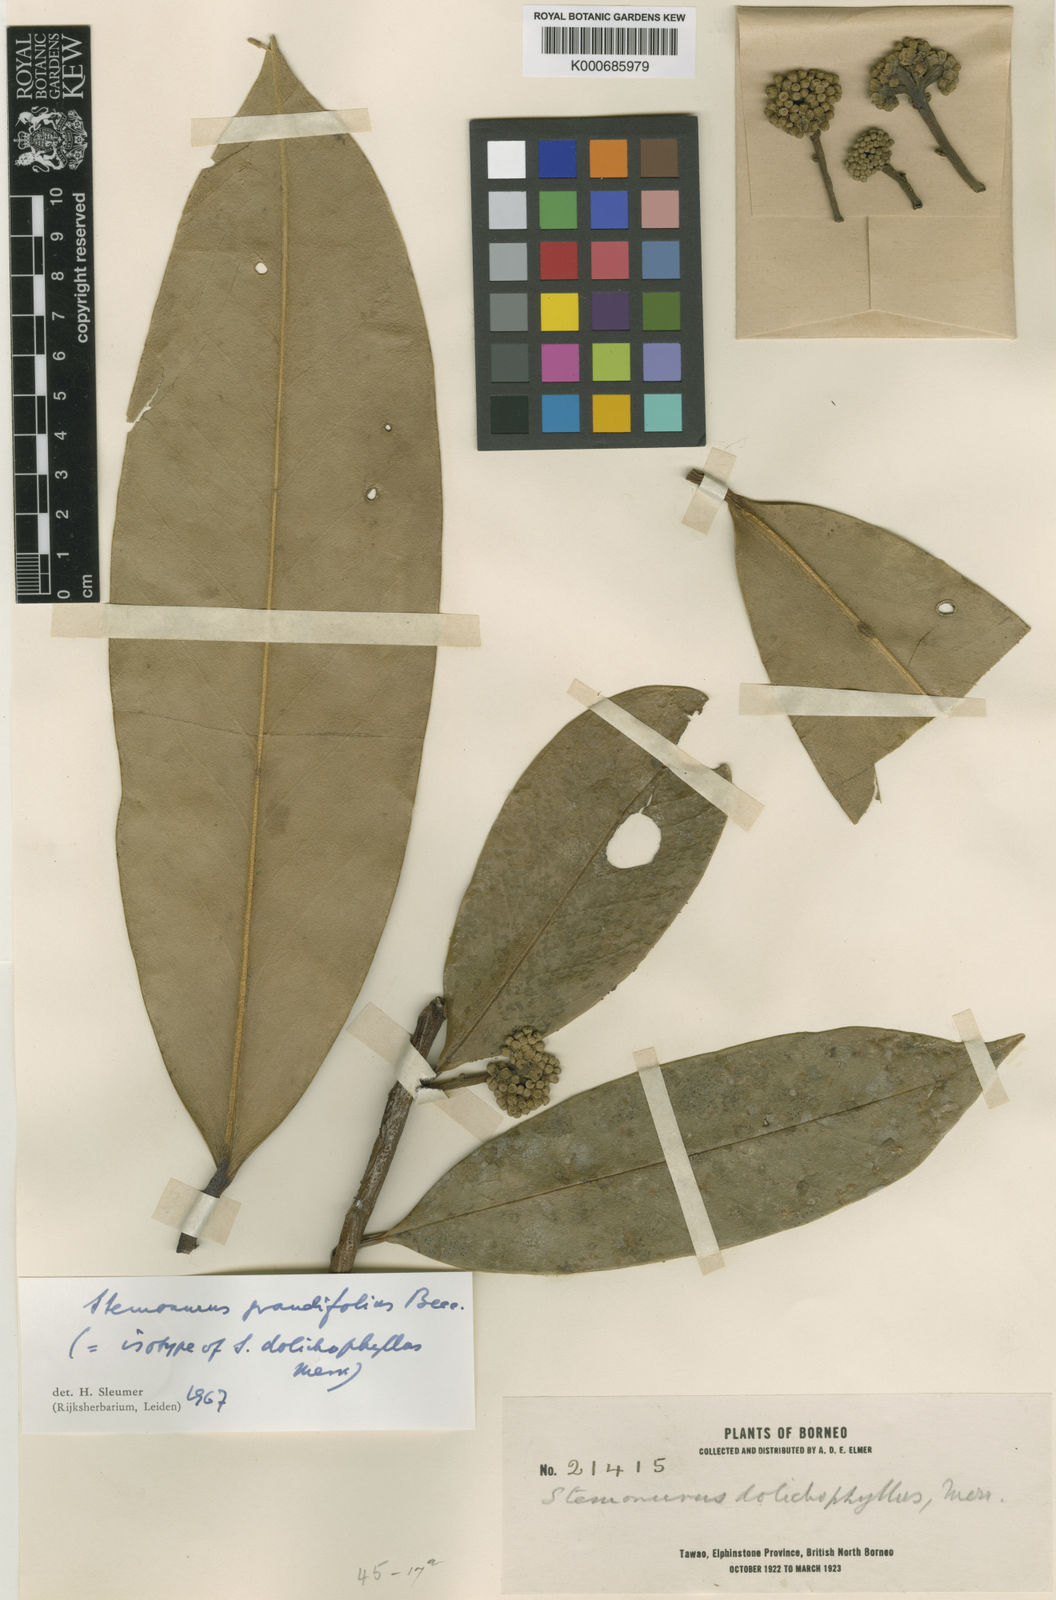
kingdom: Plantae
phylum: Tracheophyta
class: Magnoliopsida
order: Cardiopteridales
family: Stemonuraceae
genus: Stemonurus
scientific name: Stemonurus grandifolius
